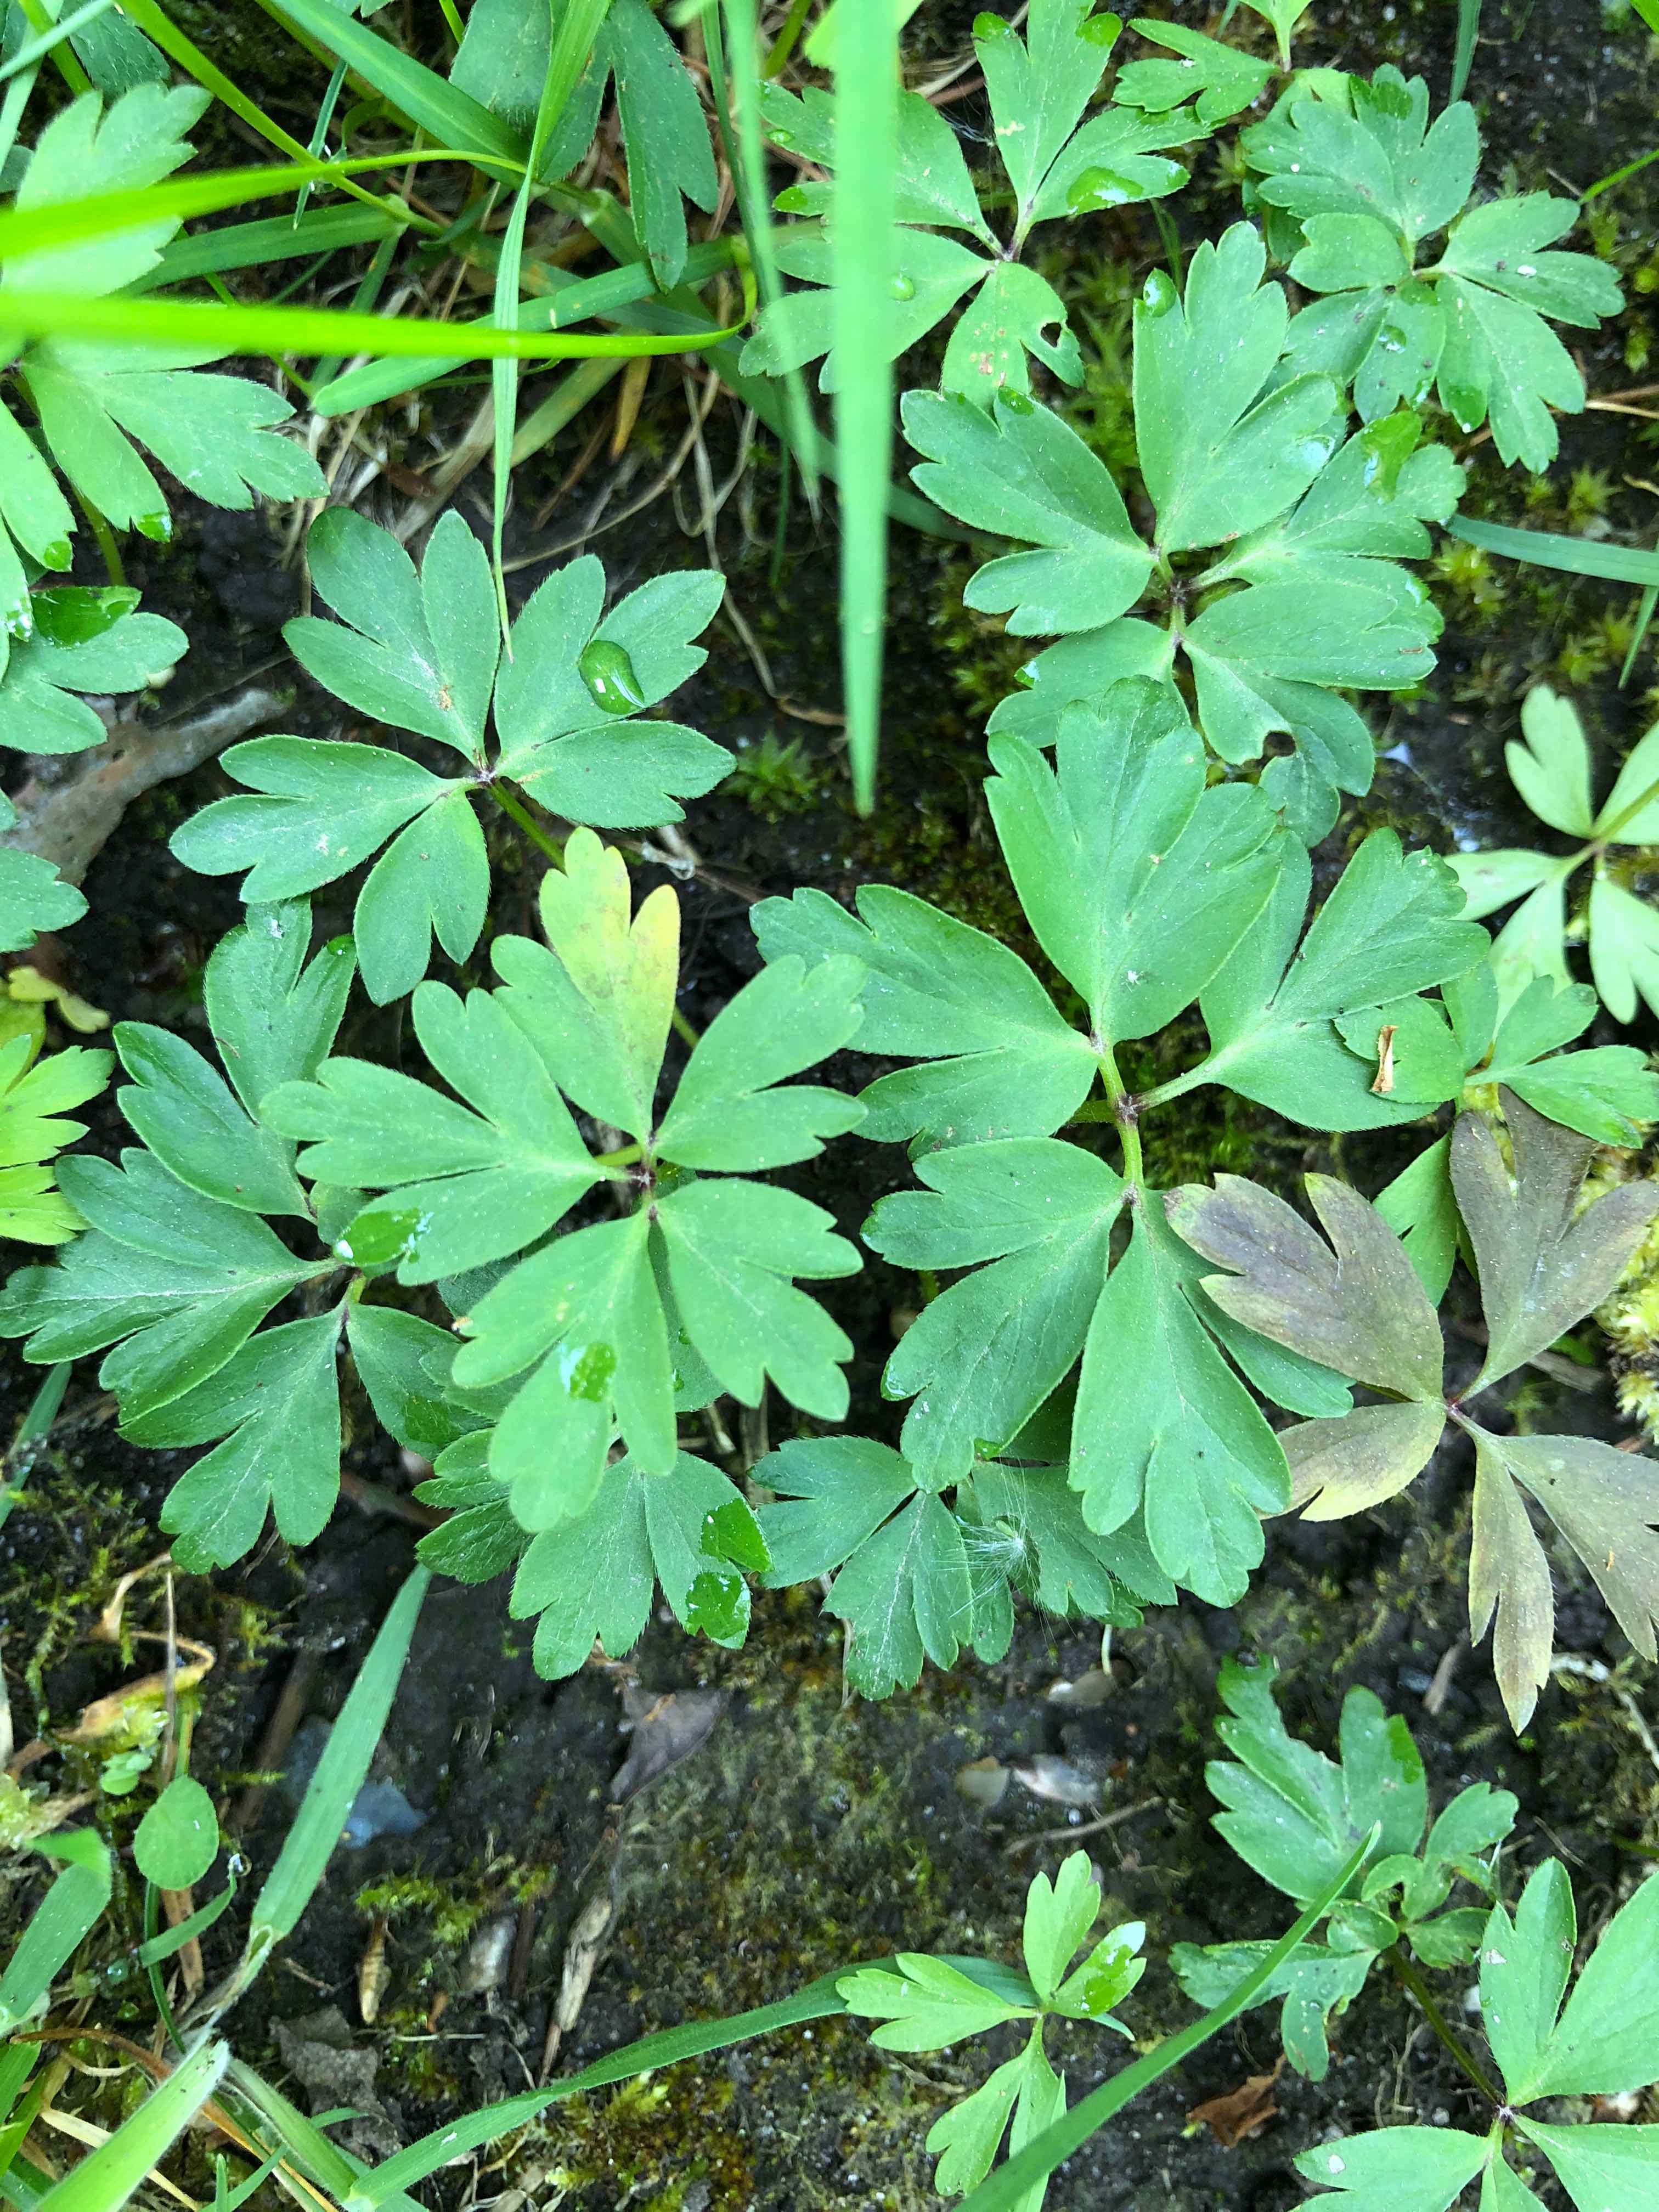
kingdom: Chromista
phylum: Oomycota
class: Peronosporea
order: Peronosporales
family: Peronosporaceae
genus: Plasmoverna
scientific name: Plasmoverna pygmaea
